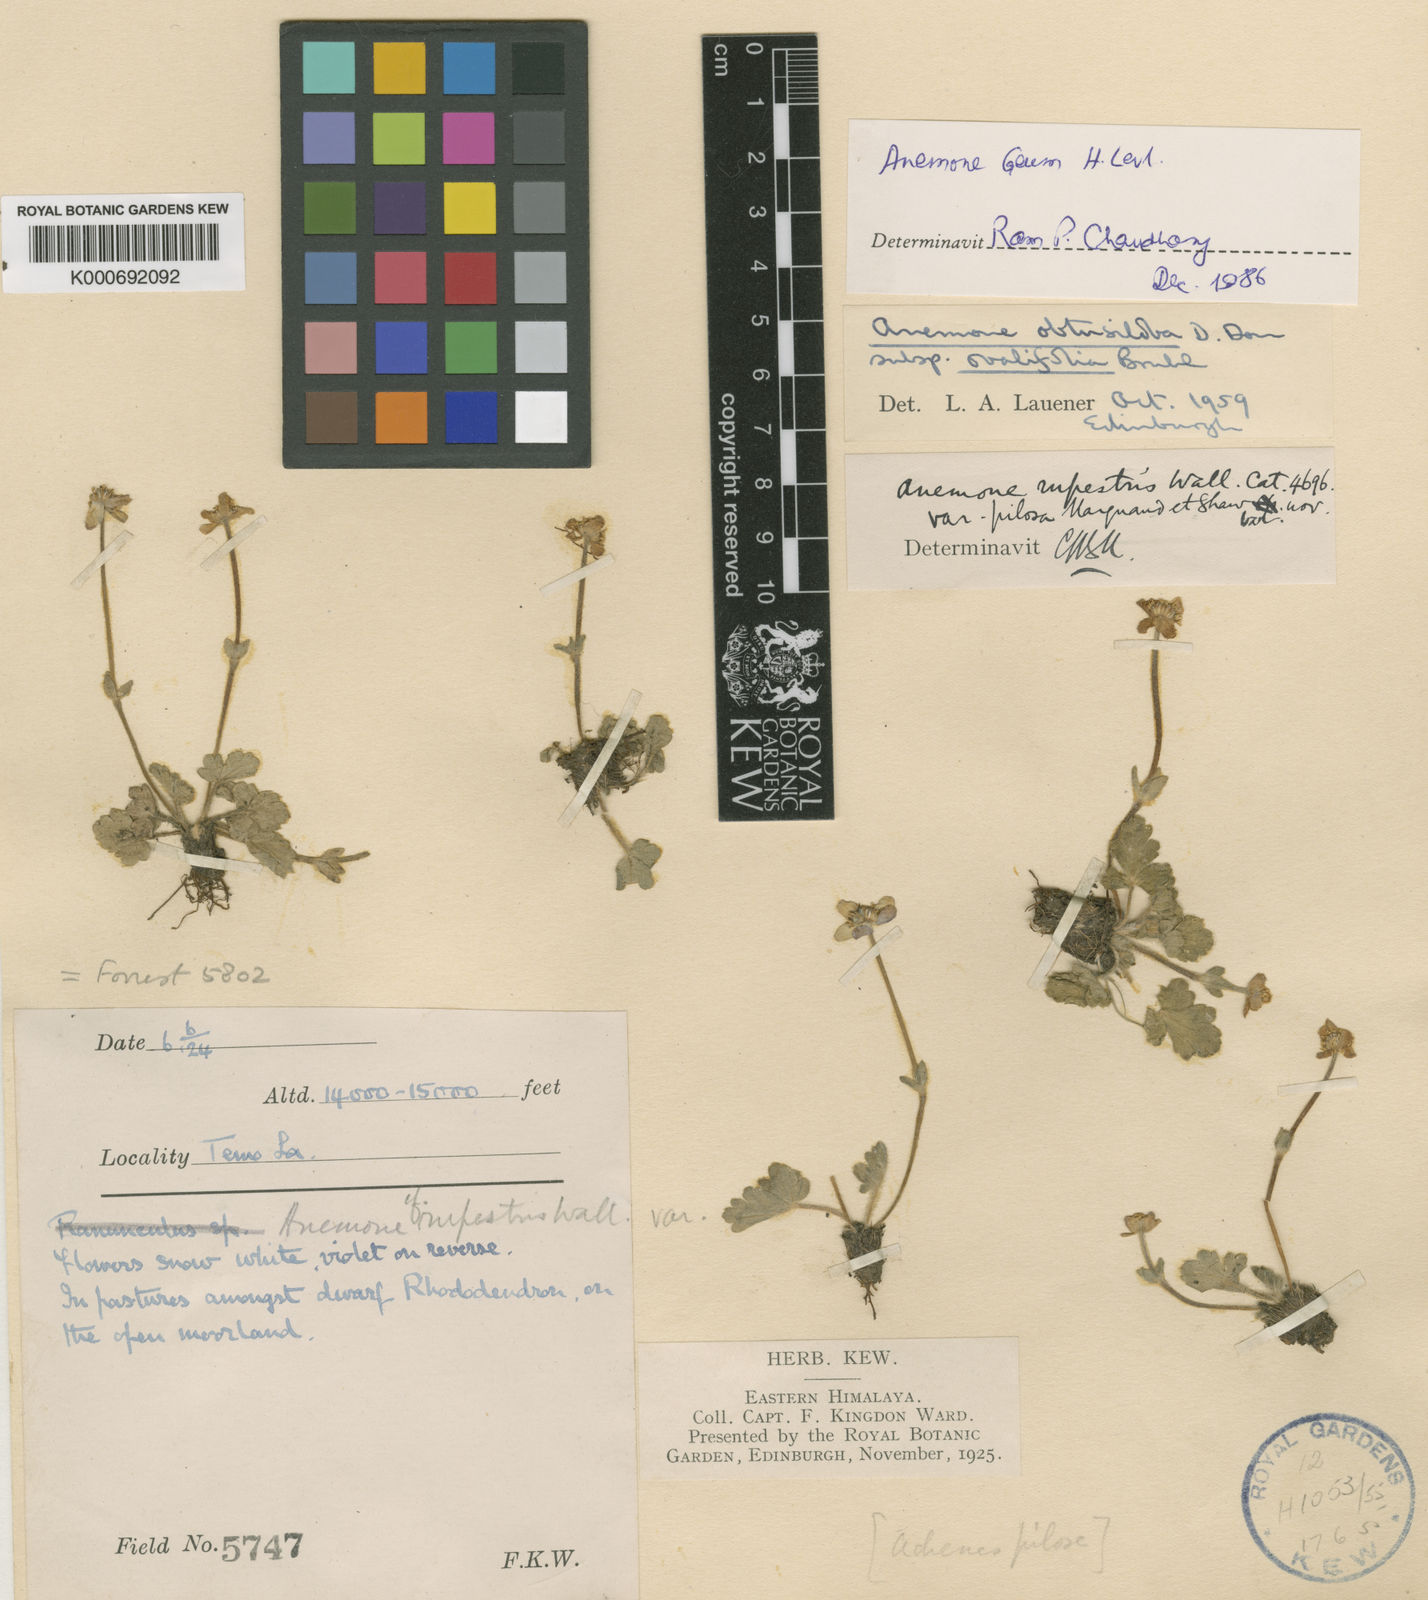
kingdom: Plantae
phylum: Tracheophyta
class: Magnoliopsida
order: Ranunculales
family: Ranunculaceae
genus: Anemonastrum
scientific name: Anemonastrum obtusilobum
